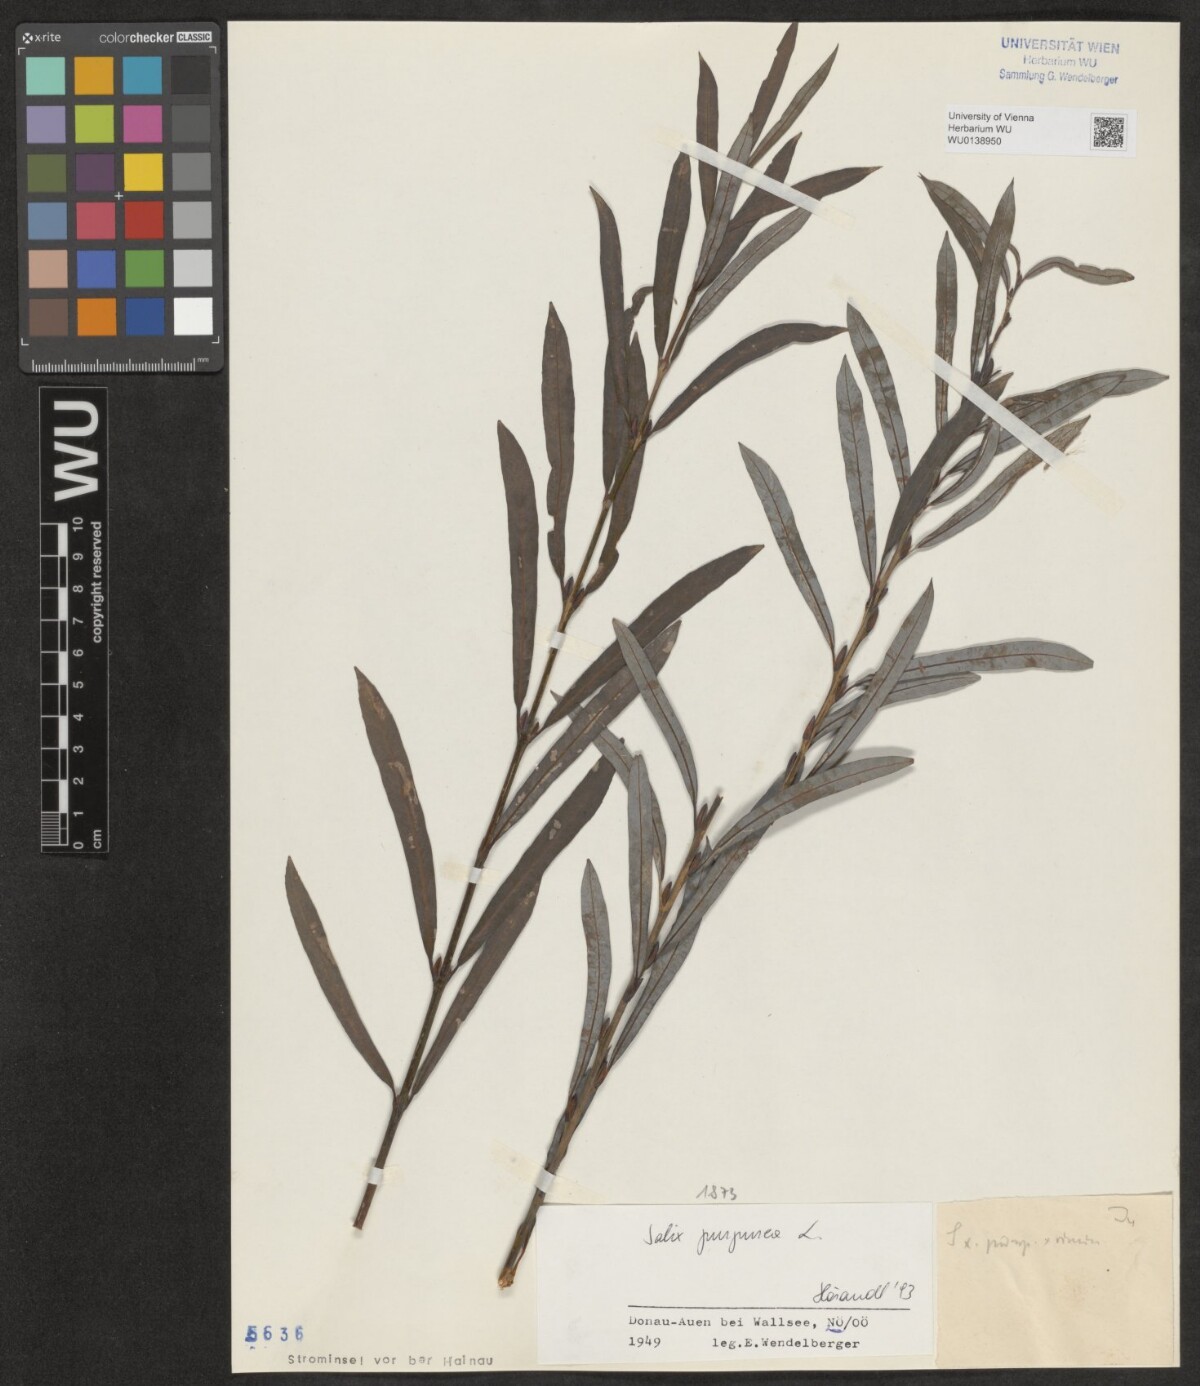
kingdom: Plantae
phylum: Tracheophyta
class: Magnoliopsida
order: Malpighiales
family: Salicaceae
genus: Salix
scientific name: Salix purpurea
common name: Purple willow
